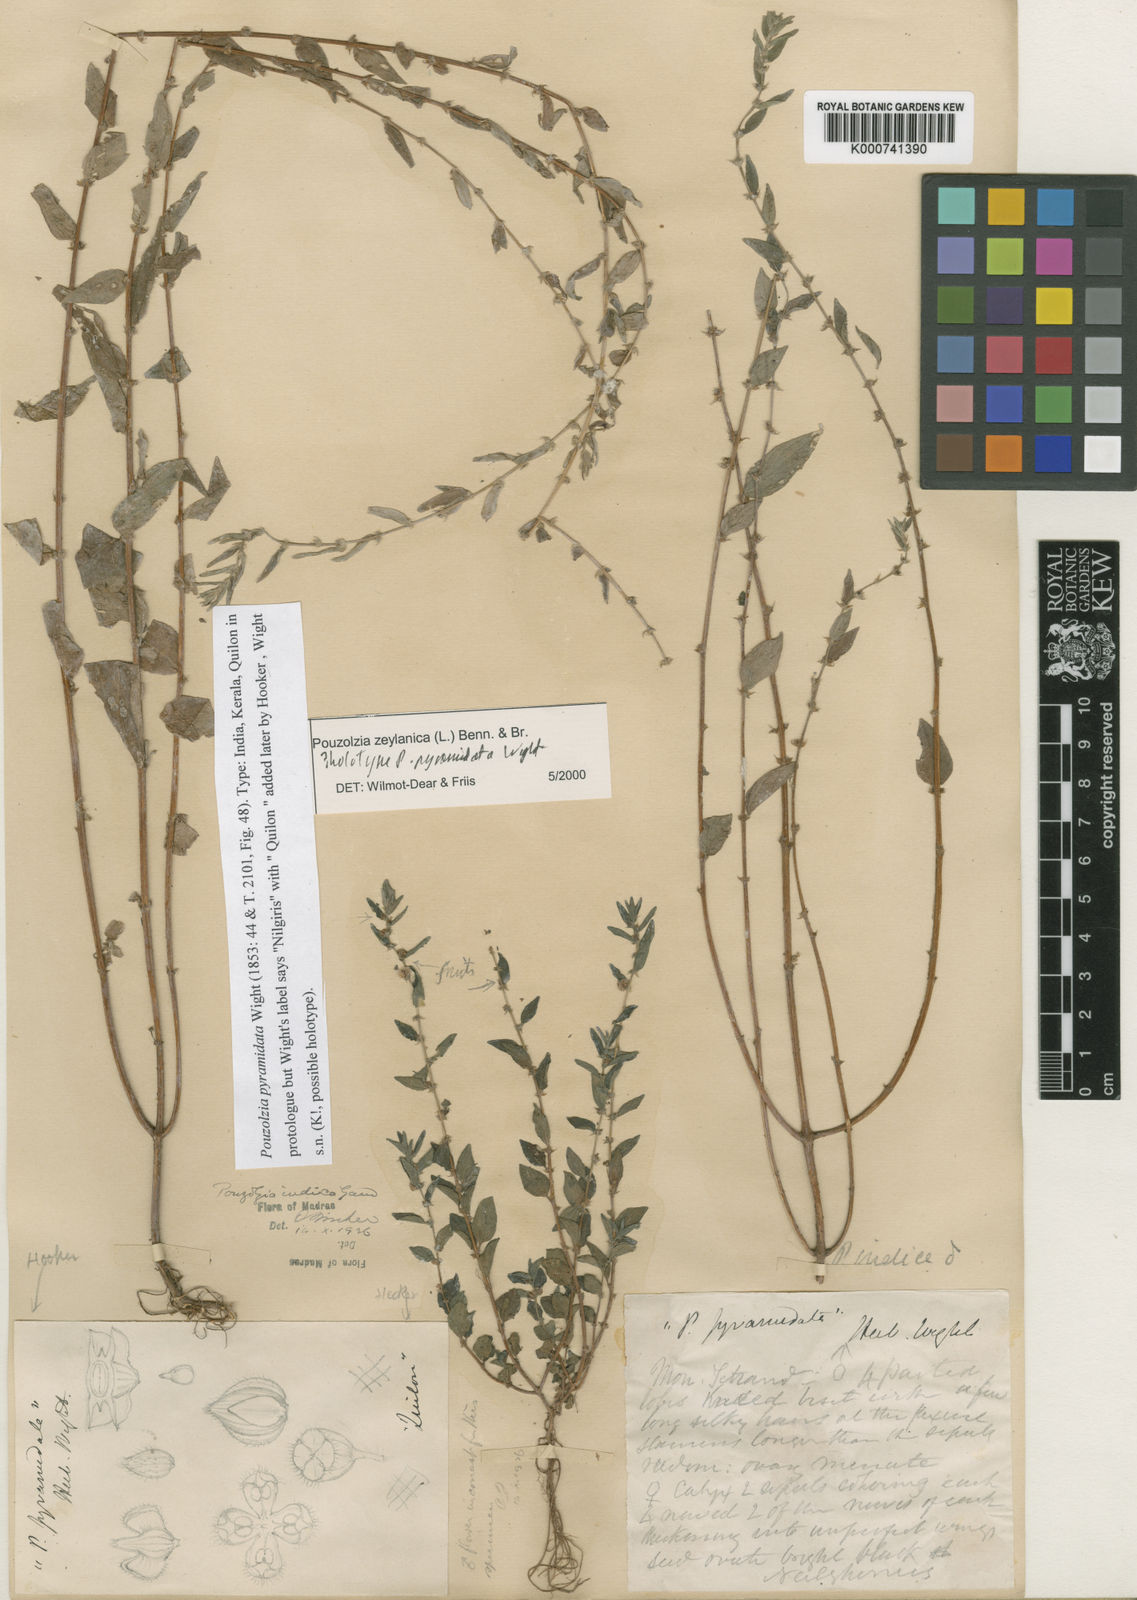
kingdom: Plantae
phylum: Tracheophyta
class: Magnoliopsida
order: Rosales
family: Urticaceae
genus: Pouzolzia
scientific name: Pouzolzia zeylanica
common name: Graceful pouzolzsbush
